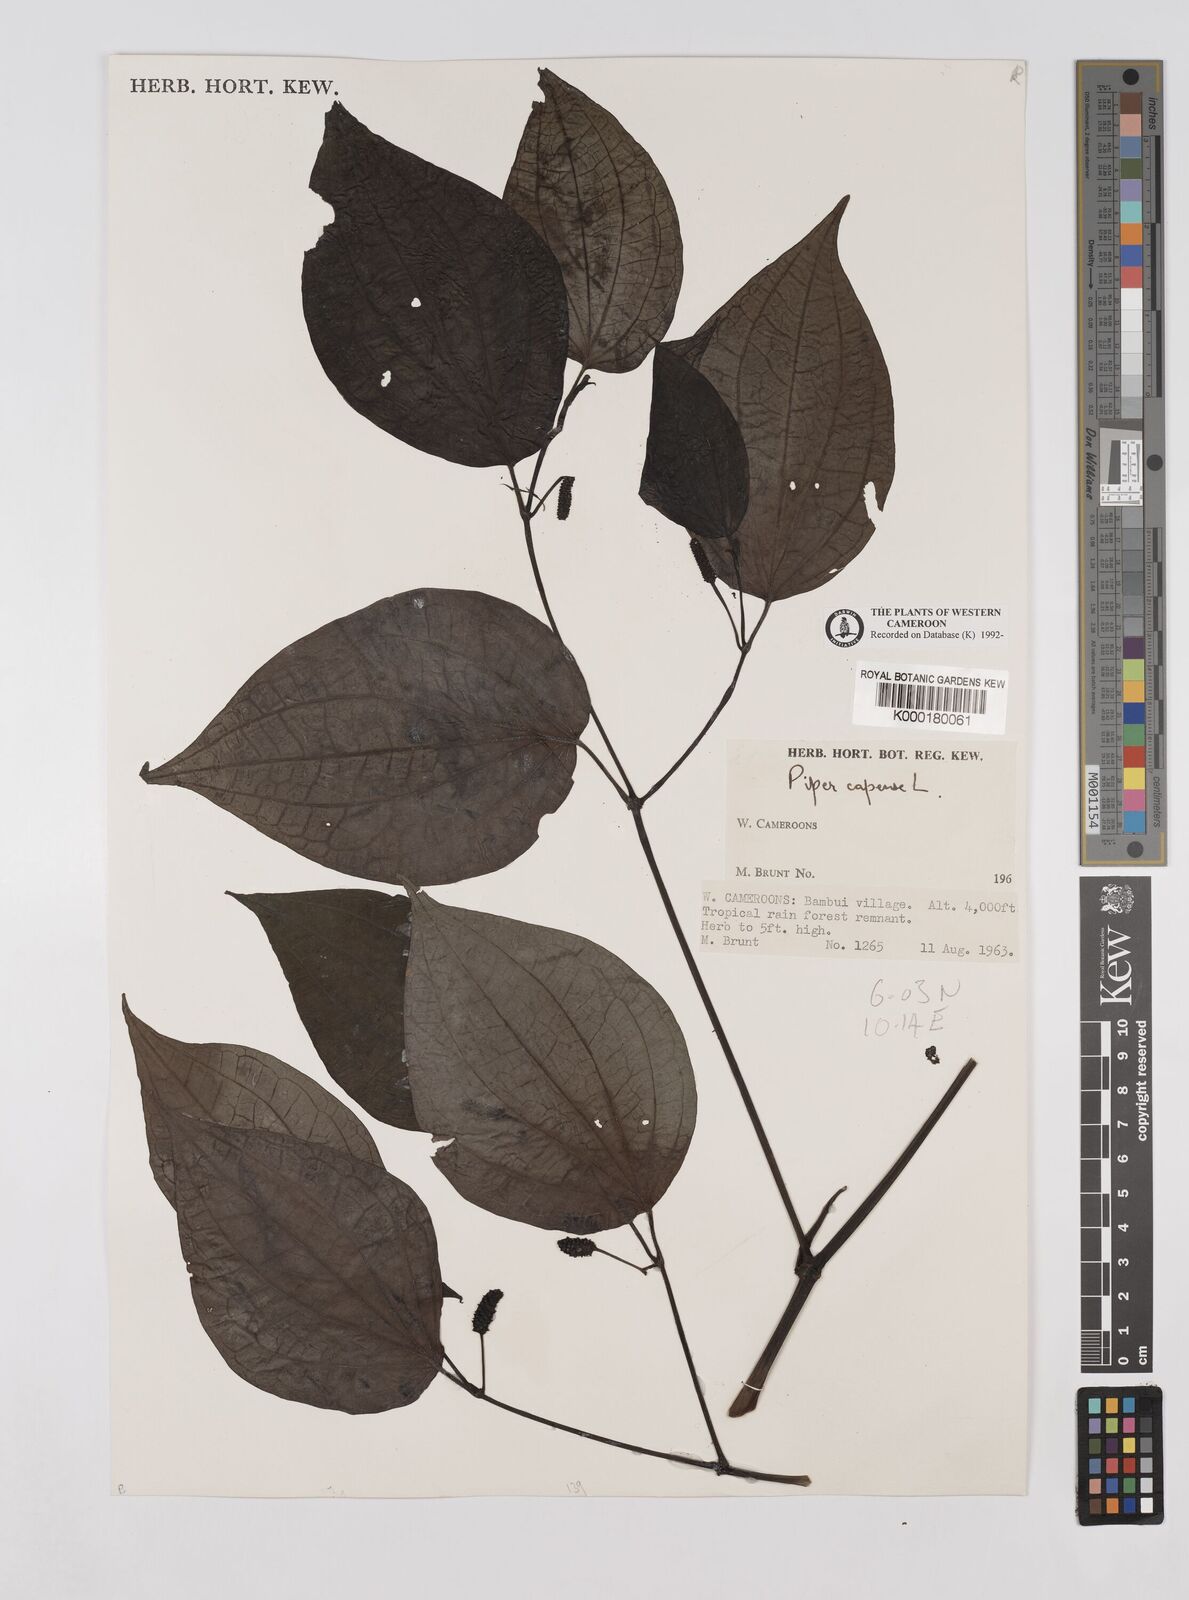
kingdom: Plantae
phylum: Tracheophyta
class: Magnoliopsida
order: Piperales
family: Piperaceae
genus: Piper
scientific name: Piper capense
